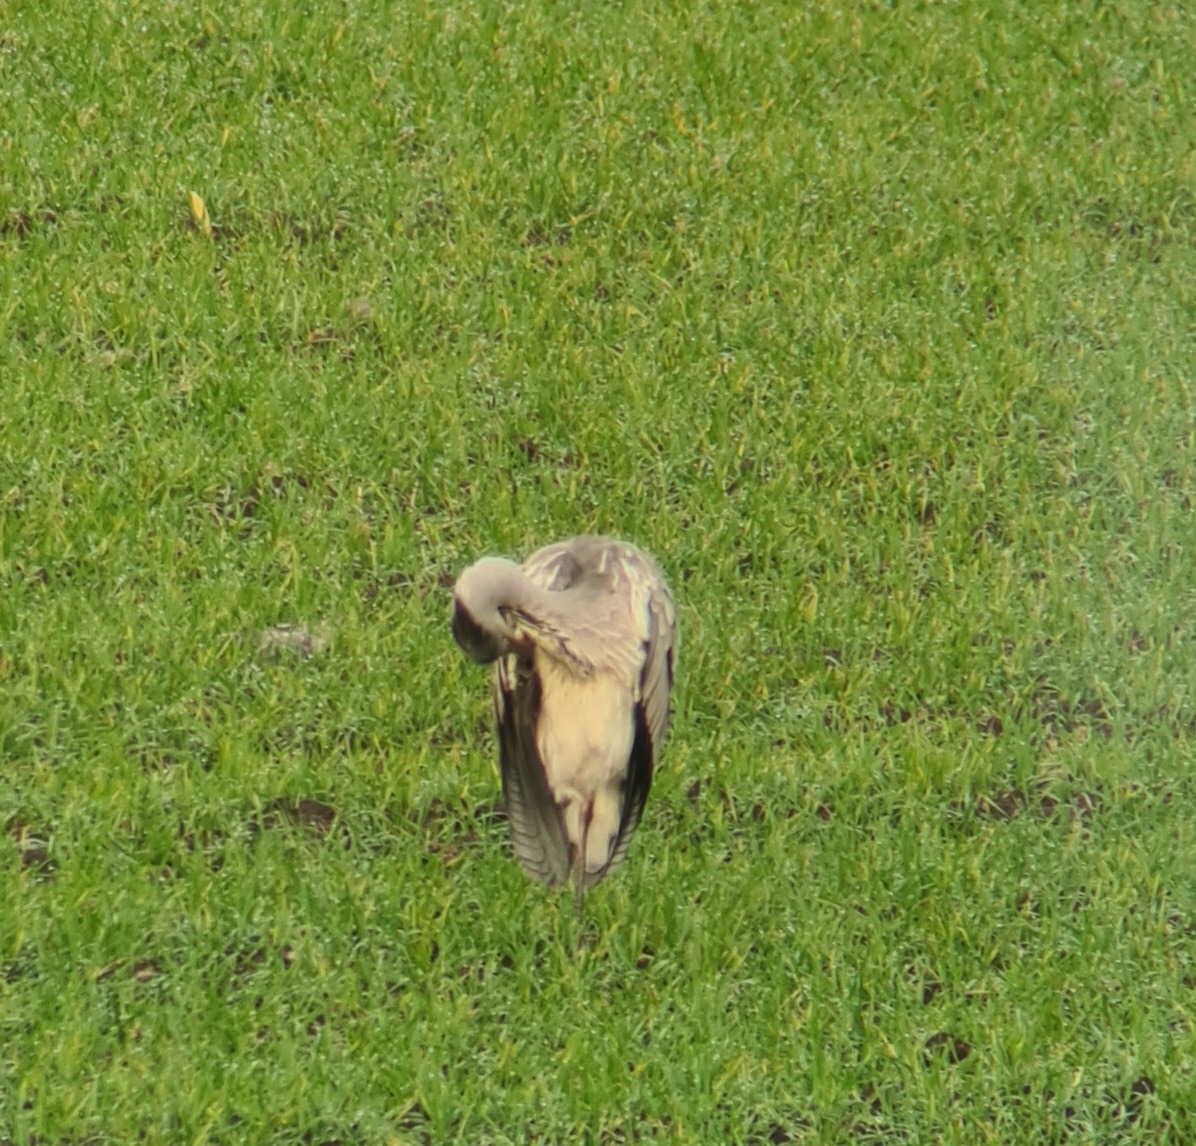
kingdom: Animalia
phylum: Chordata
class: Aves
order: Pelecaniformes
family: Ardeidae
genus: Ardea
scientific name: Ardea cinerea
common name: Fiskehejre
